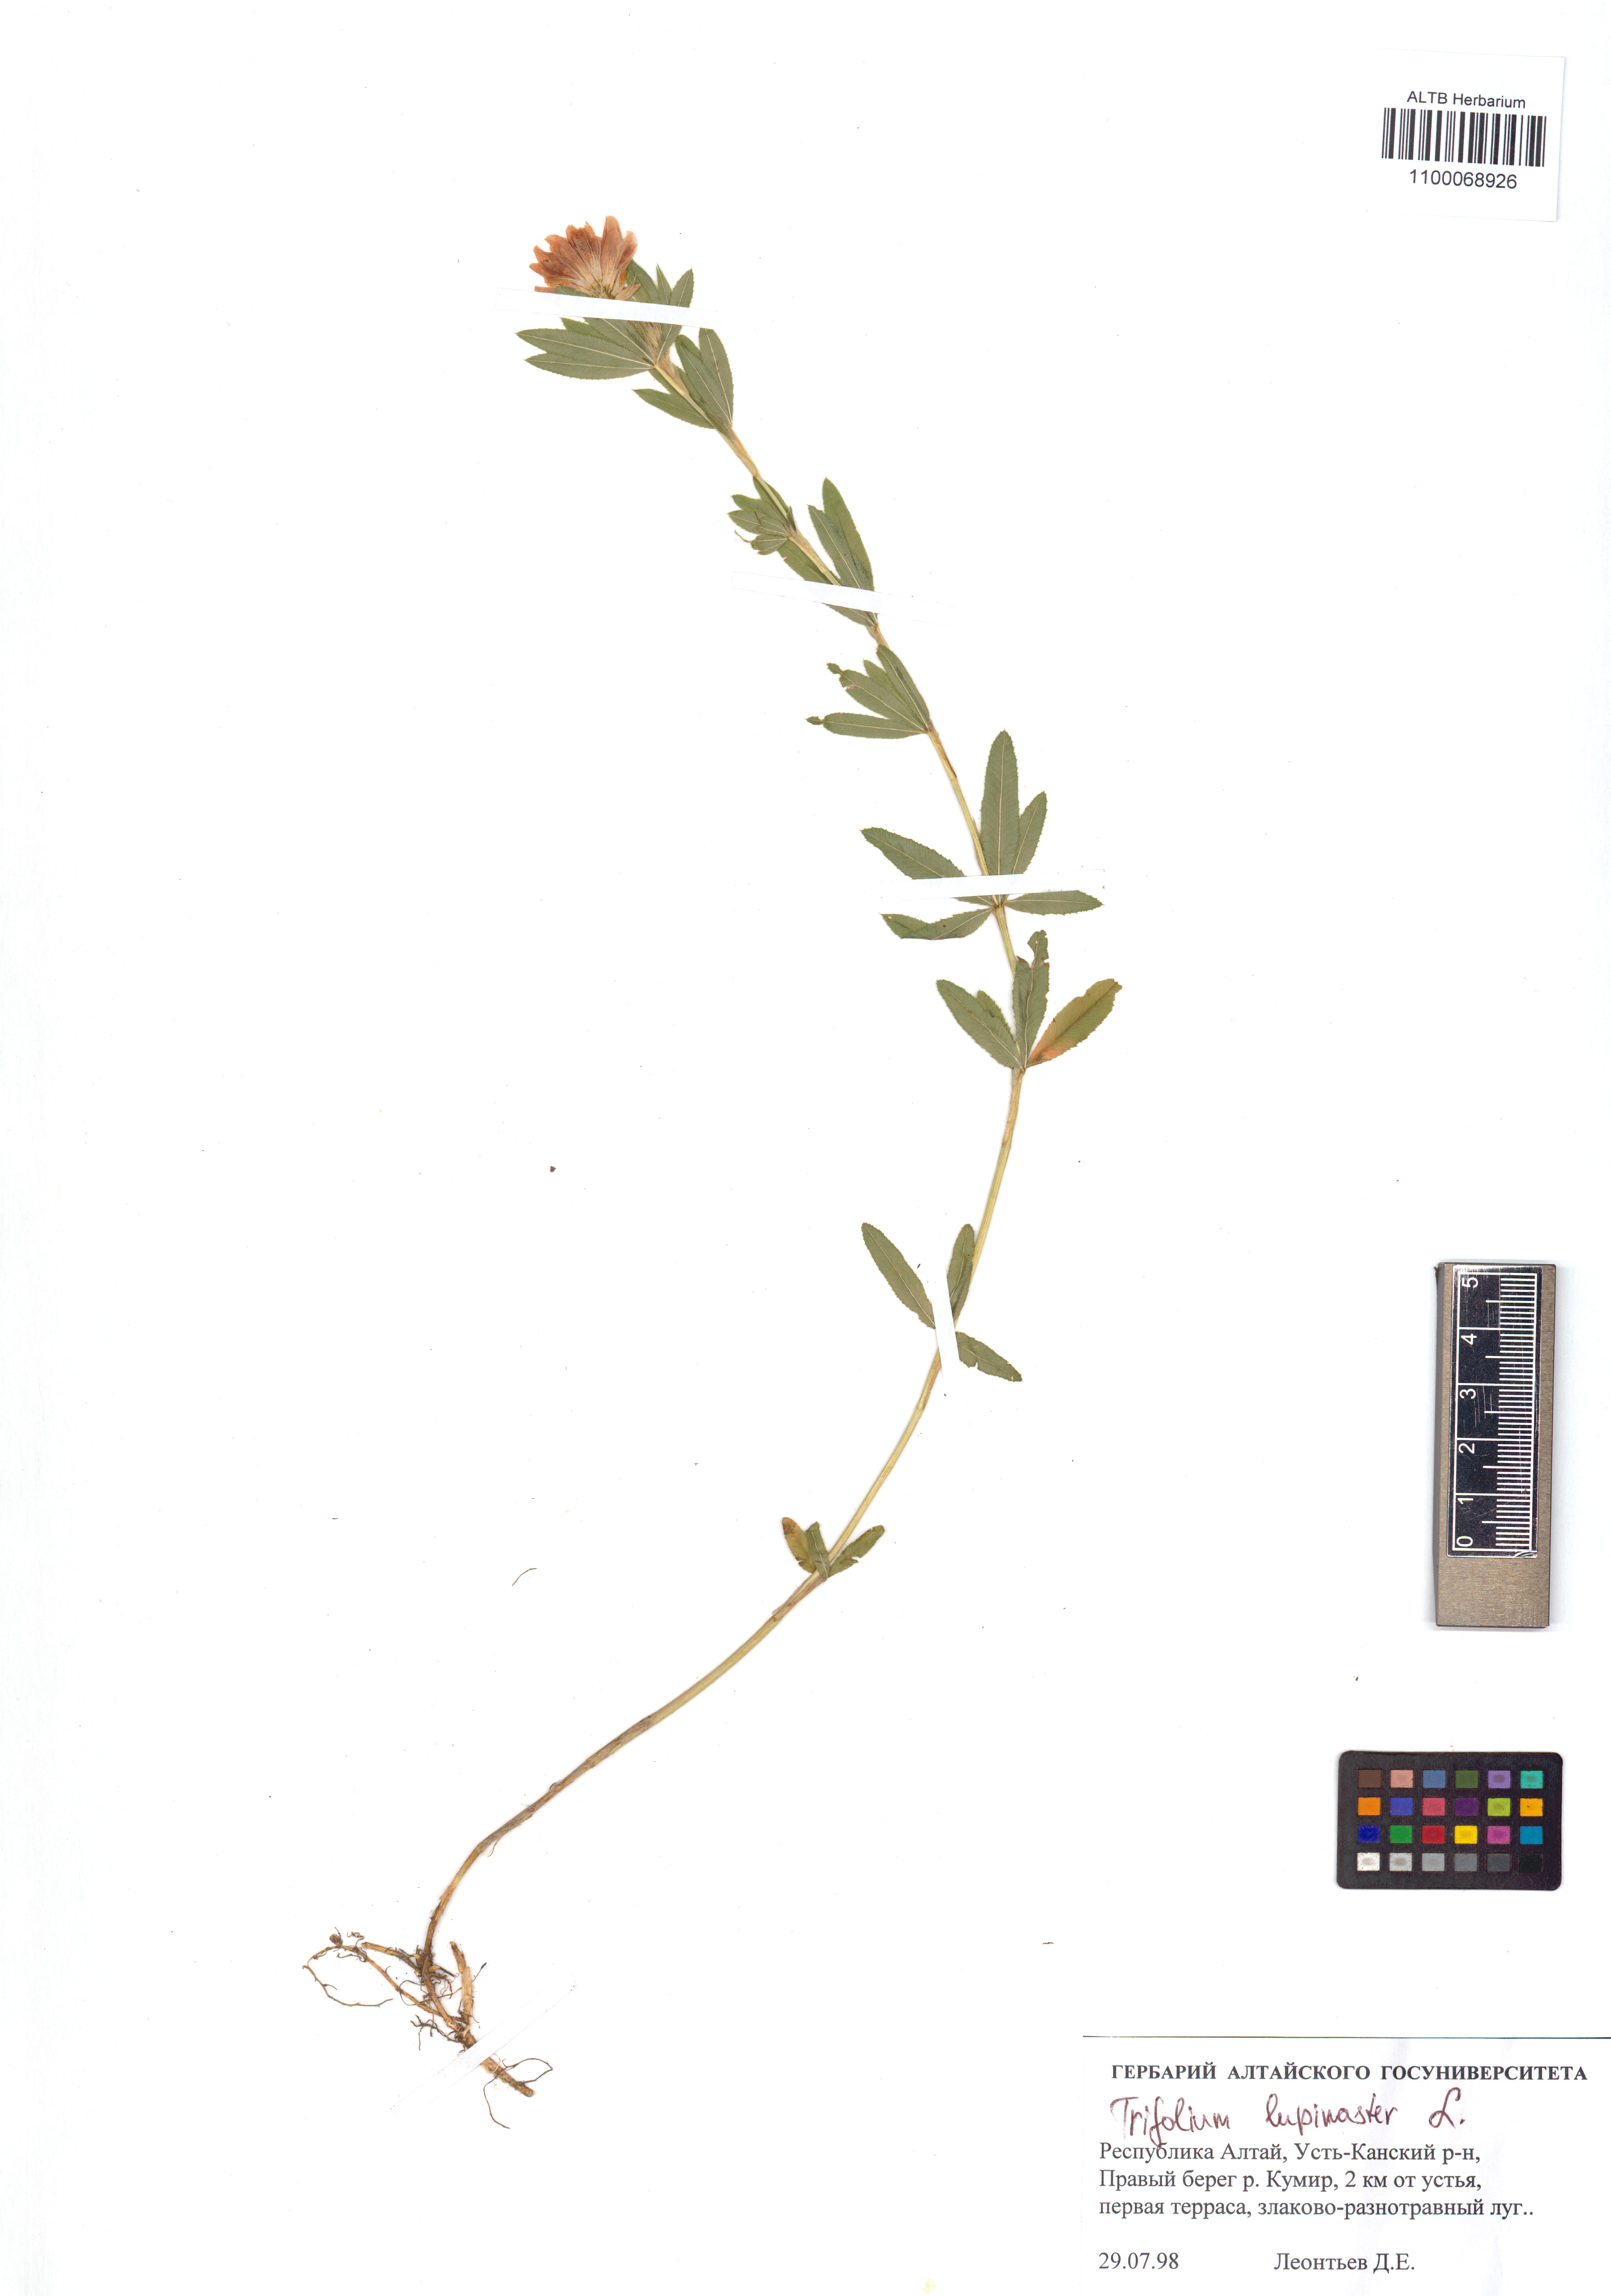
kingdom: Plantae
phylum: Tracheophyta
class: Magnoliopsida
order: Fabales
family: Fabaceae
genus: Trifolium
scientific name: Trifolium lupinaster
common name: Lupine clover
